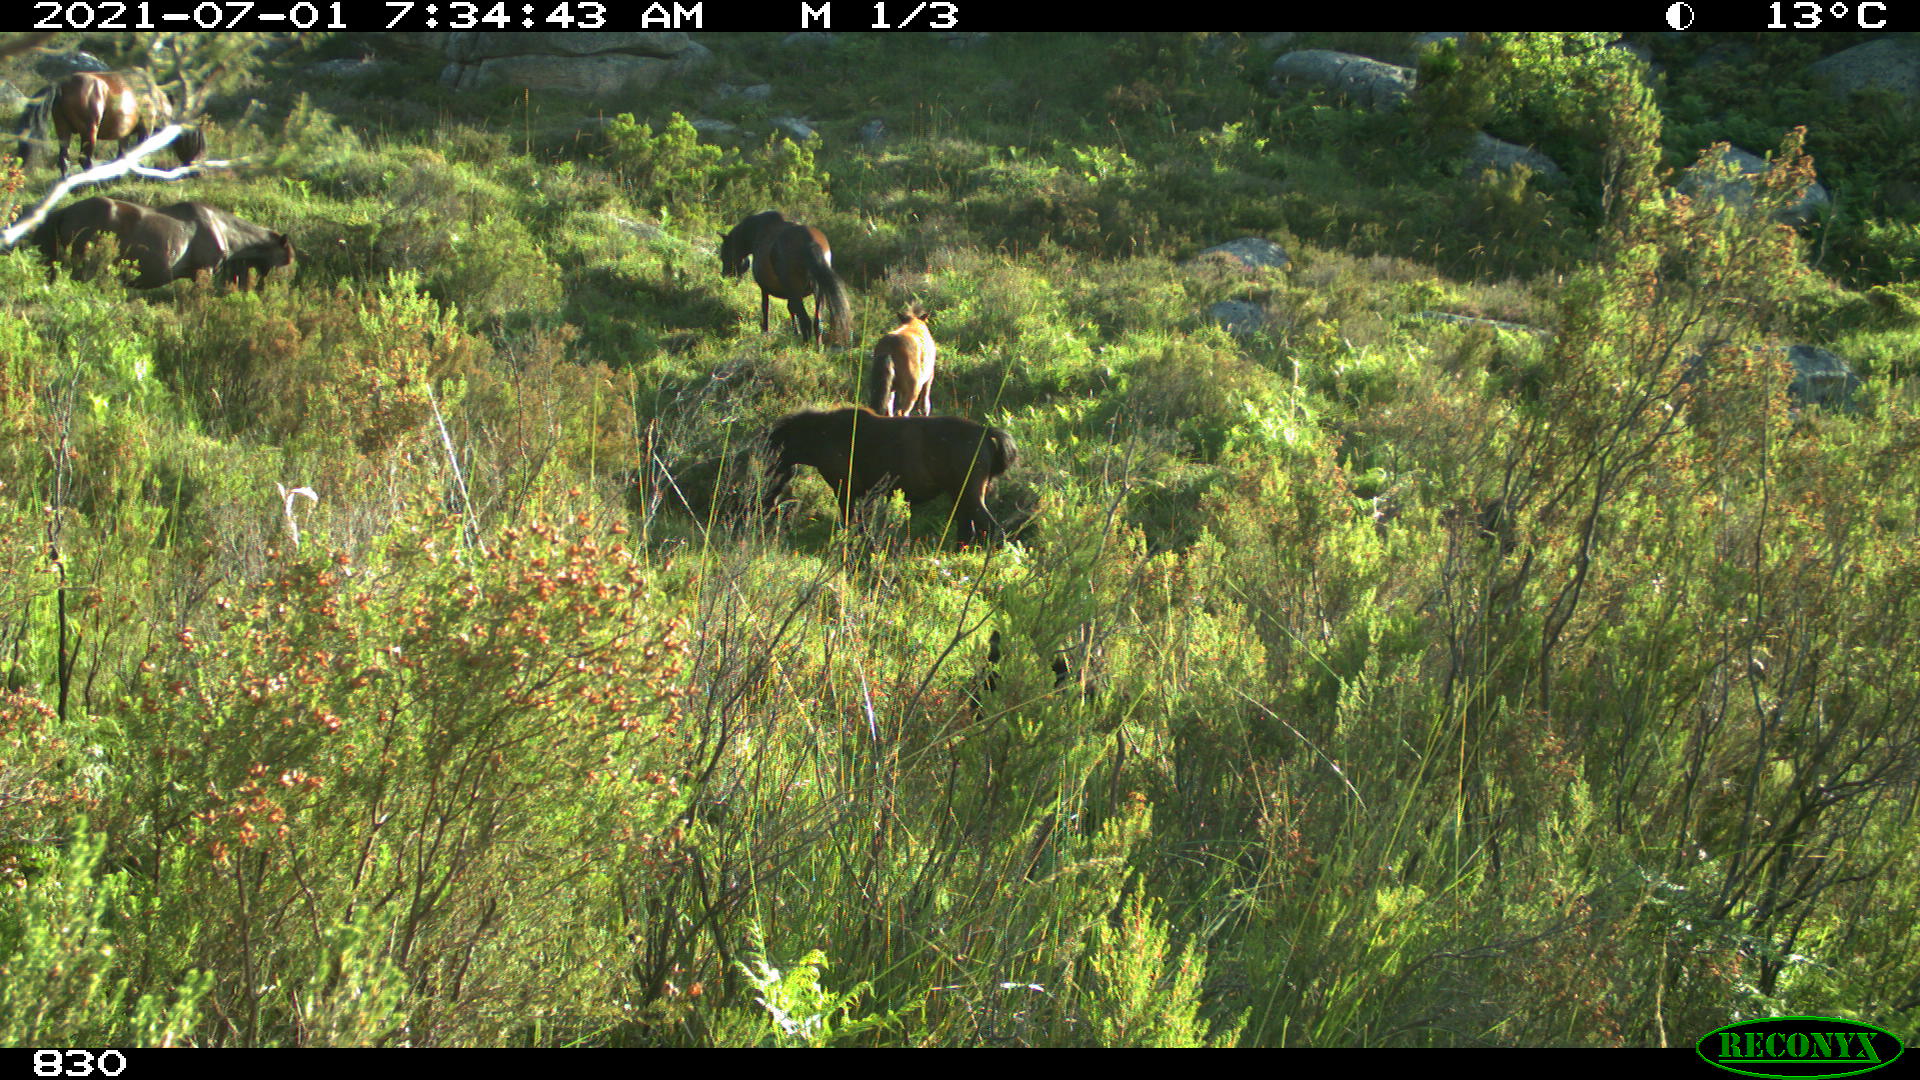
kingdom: Animalia
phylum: Chordata
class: Mammalia
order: Perissodactyla
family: Equidae
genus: Equus
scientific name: Equus caballus
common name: Horse
